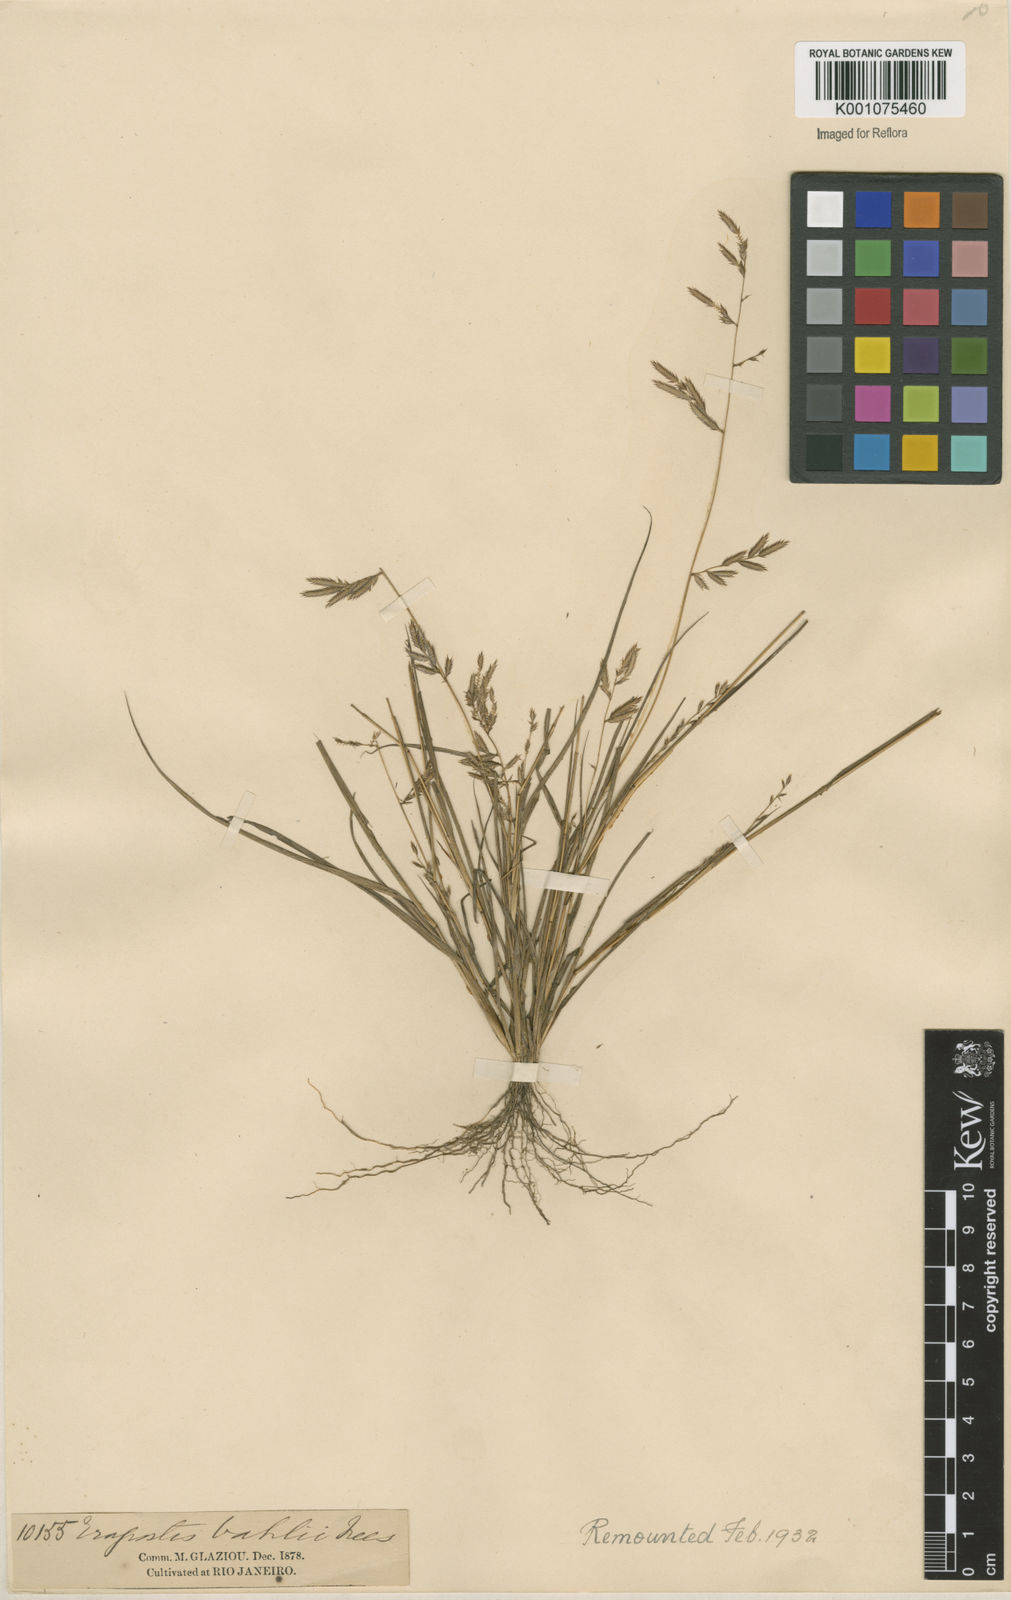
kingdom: Plantae
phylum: Tracheophyta
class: Liliopsida
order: Poales
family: Poaceae
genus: Eragrostis
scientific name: Eragrostis maypurensis
